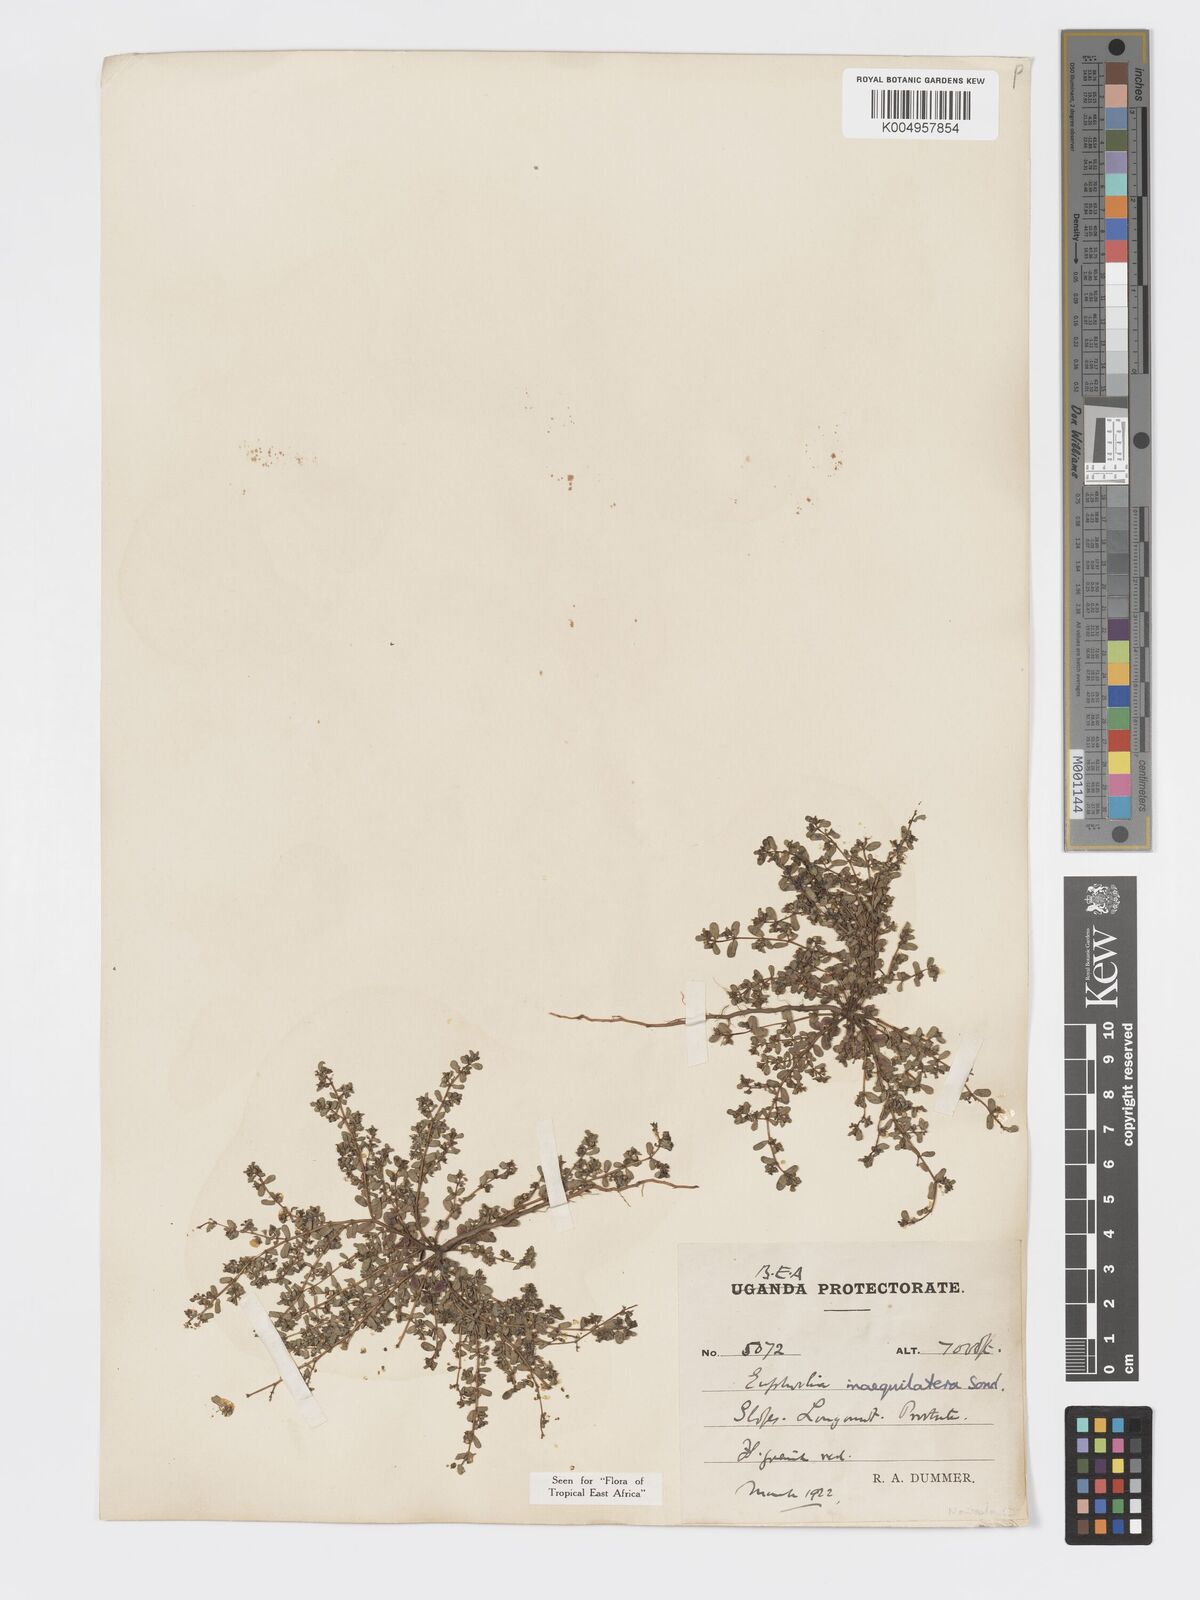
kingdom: Plantae
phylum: Tracheophyta
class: Magnoliopsida
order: Malpighiales
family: Euphorbiaceae
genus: Euphorbia
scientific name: Euphorbia inaequilatera
